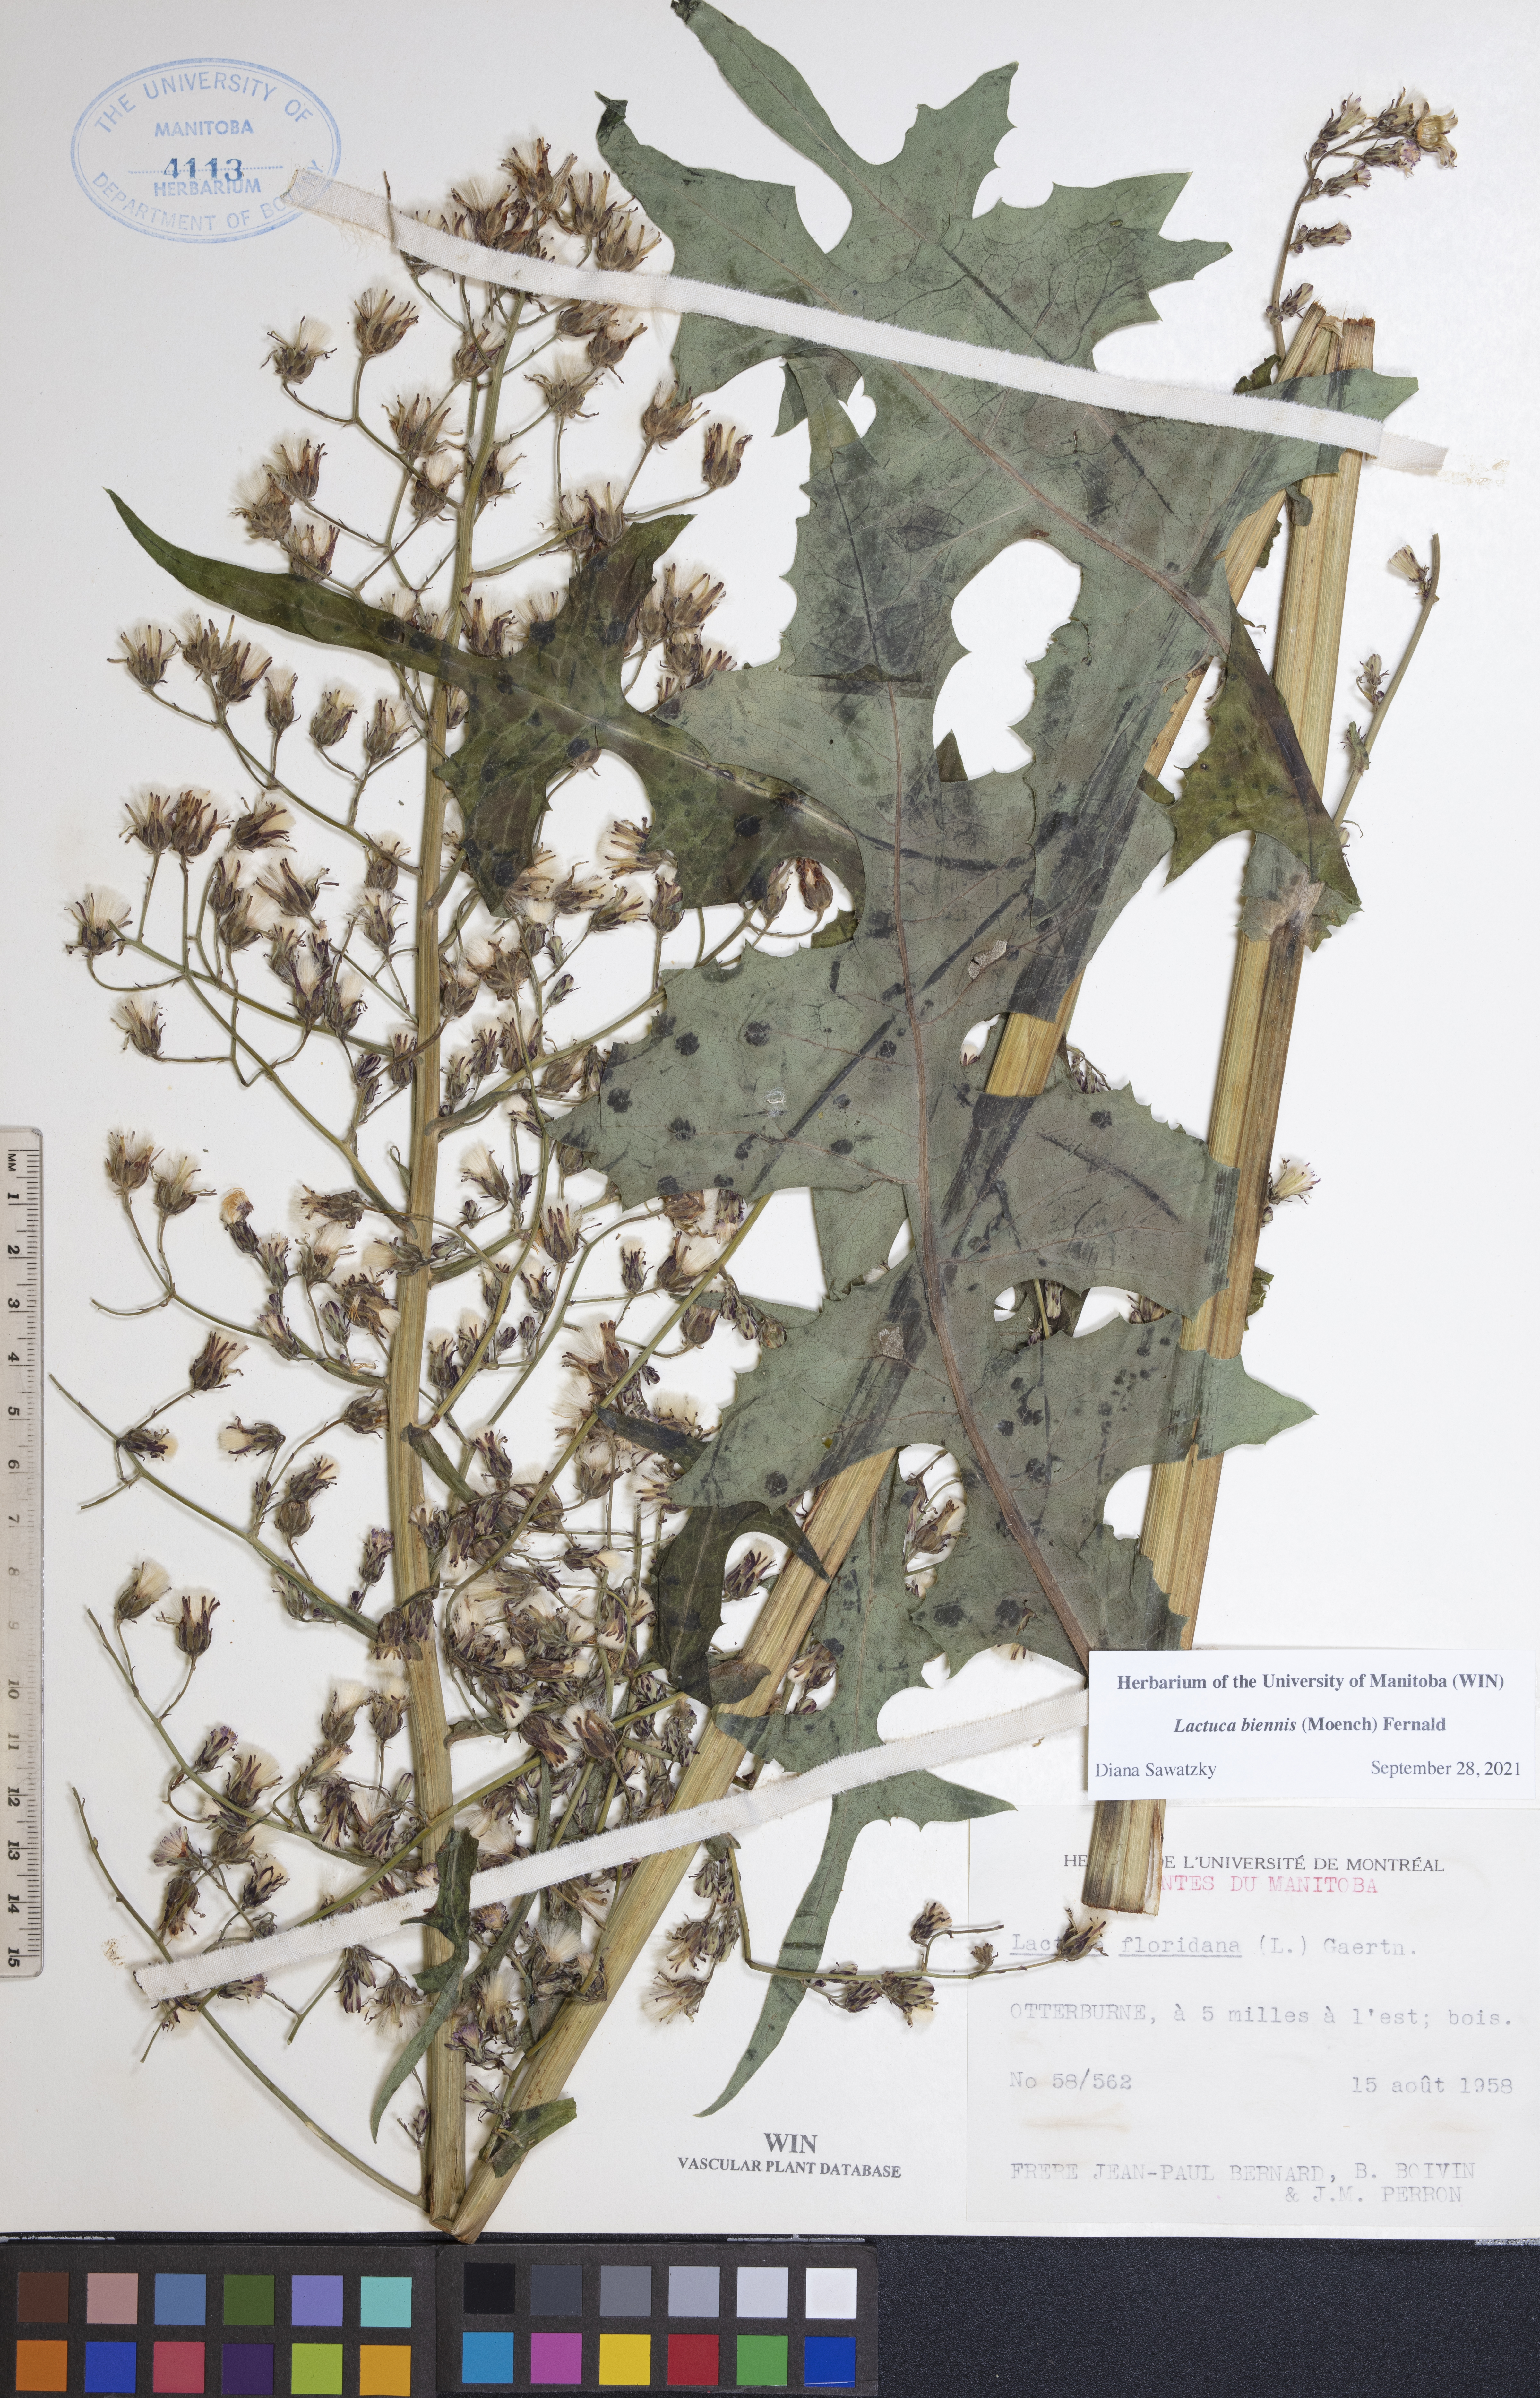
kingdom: Plantae
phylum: Tracheophyta
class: Magnoliopsida
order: Asterales
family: Asteraceae
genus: Lactuca
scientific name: Lactuca biennis
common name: Blue wood lettuce
